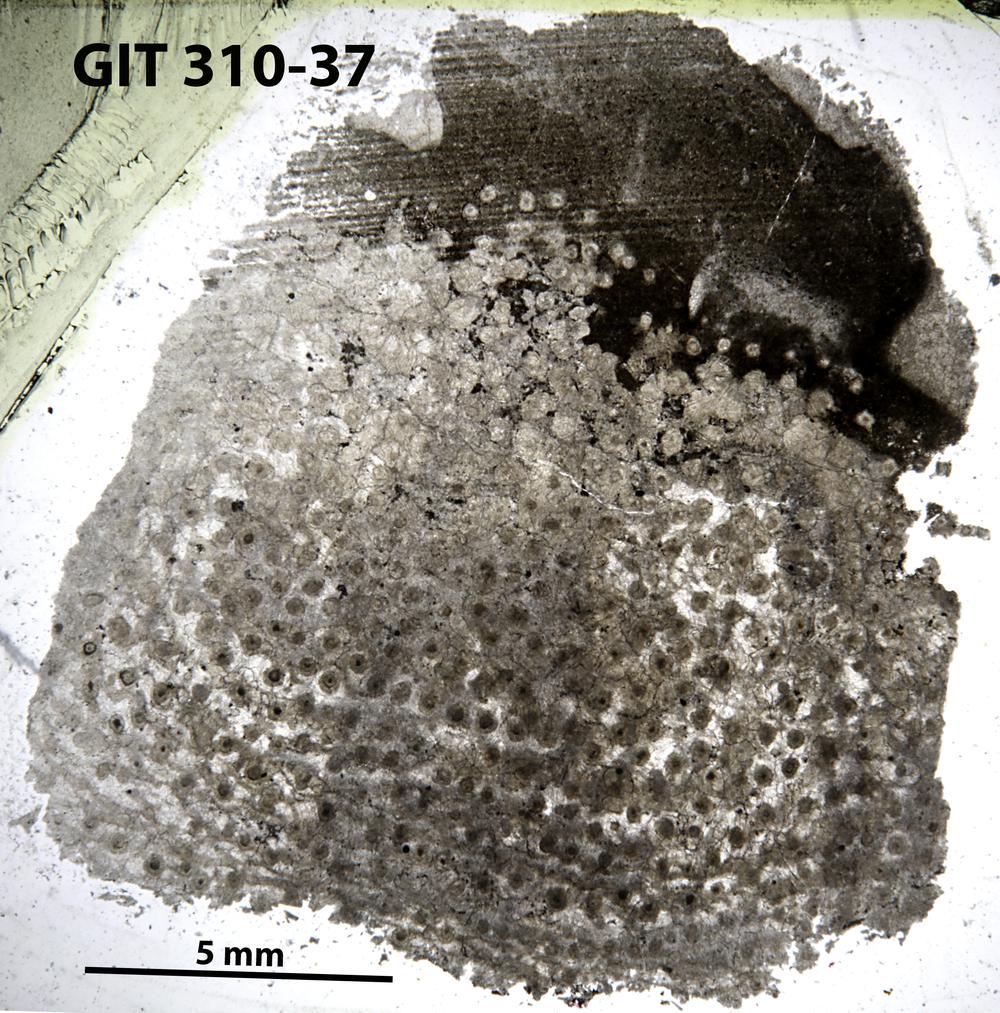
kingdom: Animalia
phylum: Porifera
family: Labechiidae
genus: Labechia
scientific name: Labechia
